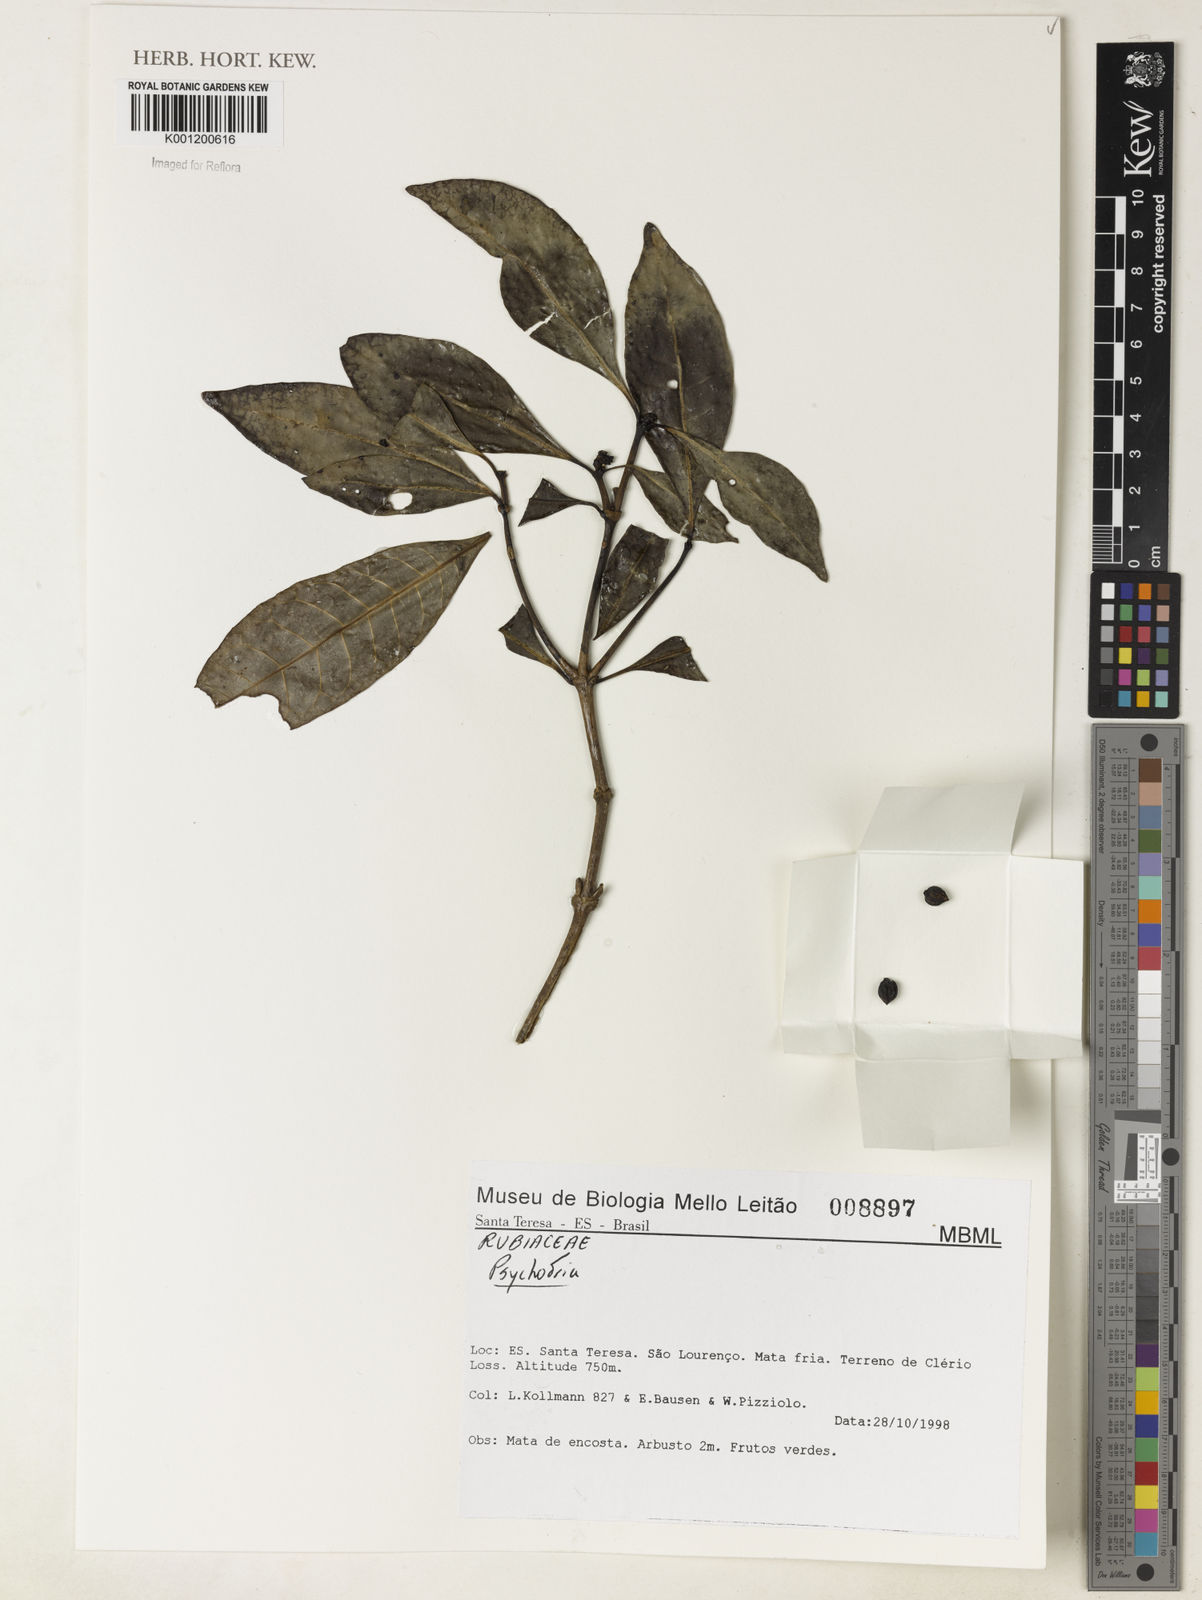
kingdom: Plantae
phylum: Tracheophyta
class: Magnoliopsida
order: Gentianales
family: Rubiaceae
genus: Psychotria
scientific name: Psychotria
